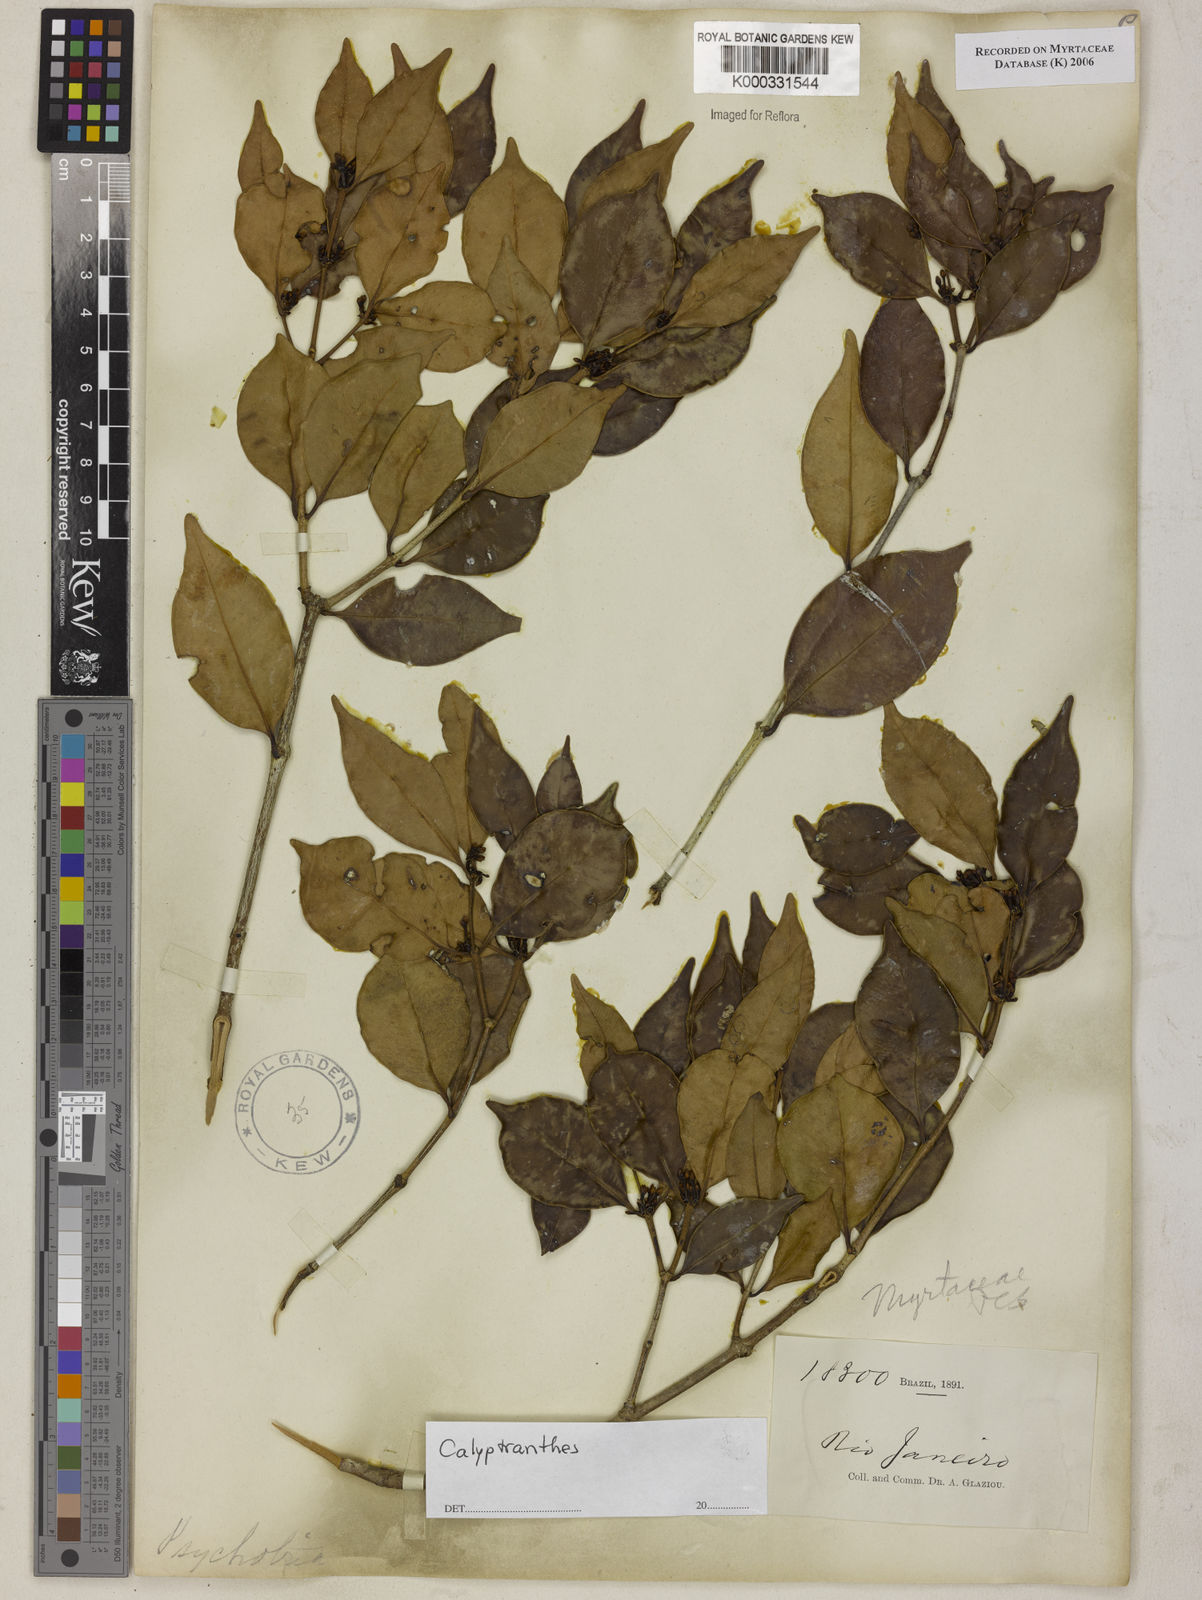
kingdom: Plantae
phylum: Tracheophyta
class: Magnoliopsida
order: Myrtales
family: Myrtaceae
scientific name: Myrtaceae
